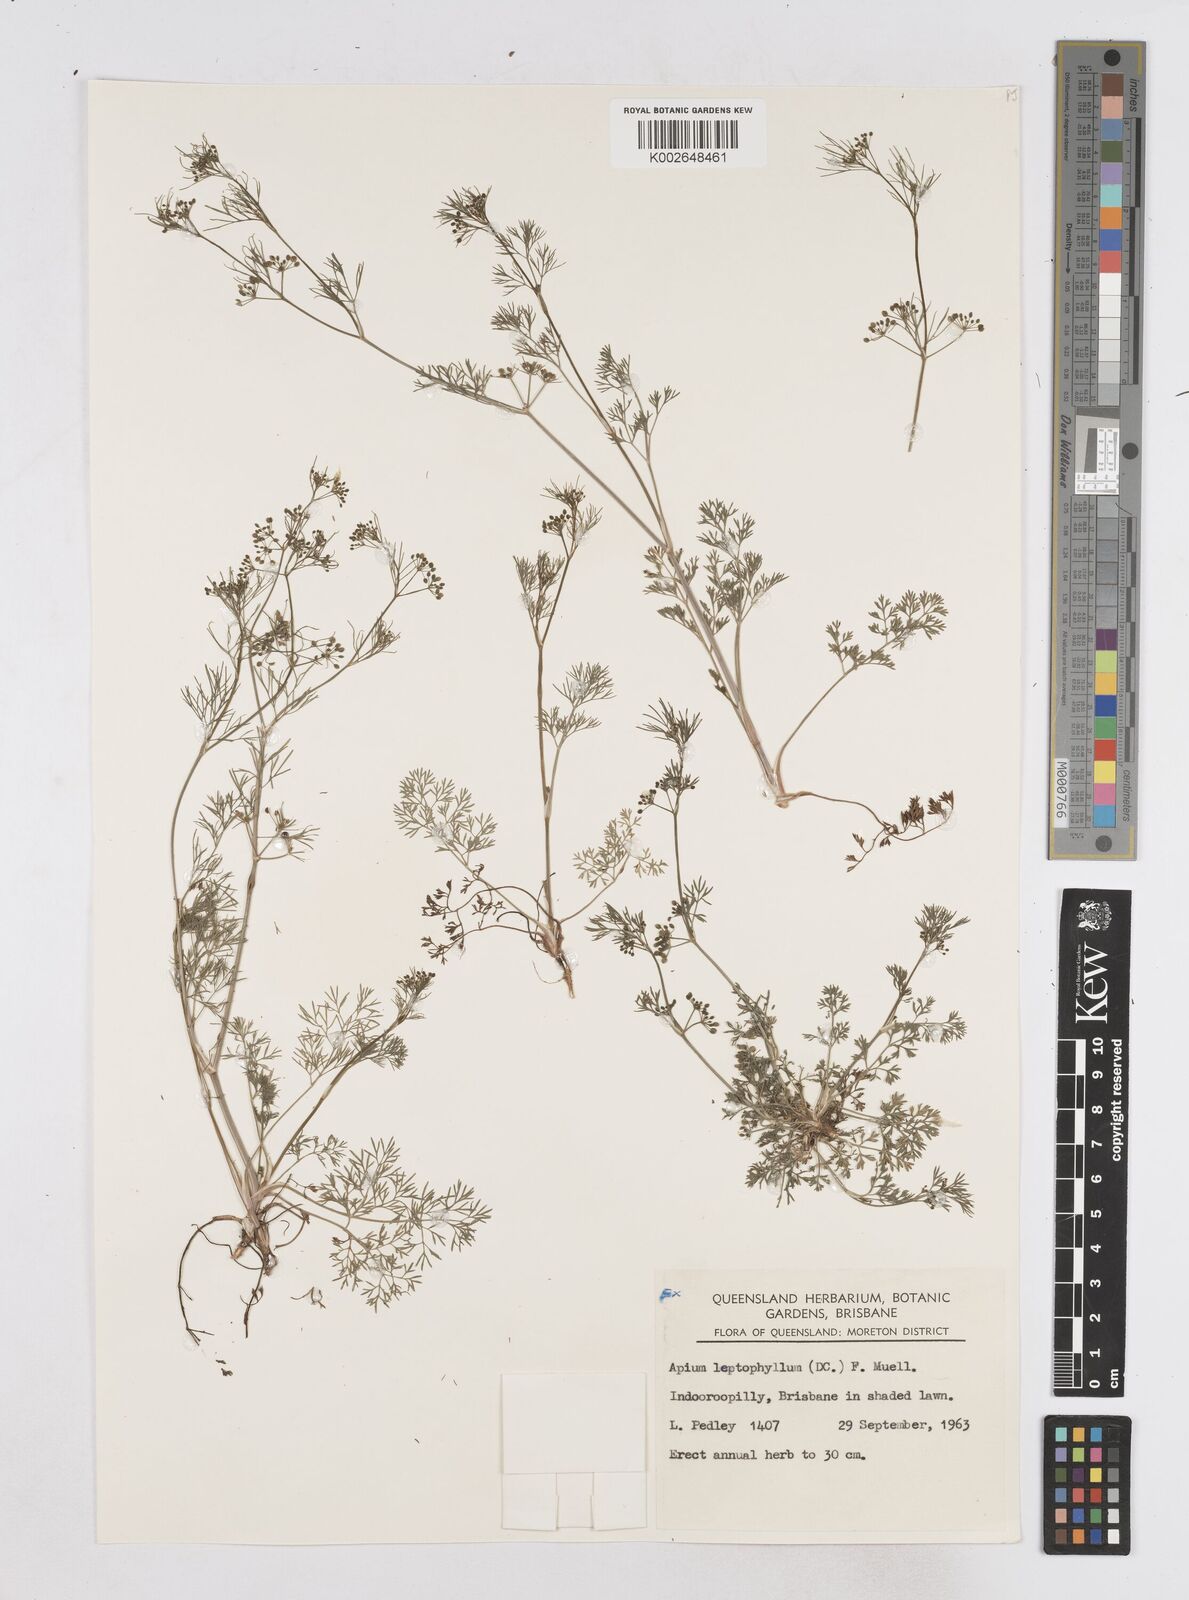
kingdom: Plantae
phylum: Tracheophyta
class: Magnoliopsida
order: Apiales
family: Apiaceae
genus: Cyclospermum
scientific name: Cyclospermum leptophyllum
